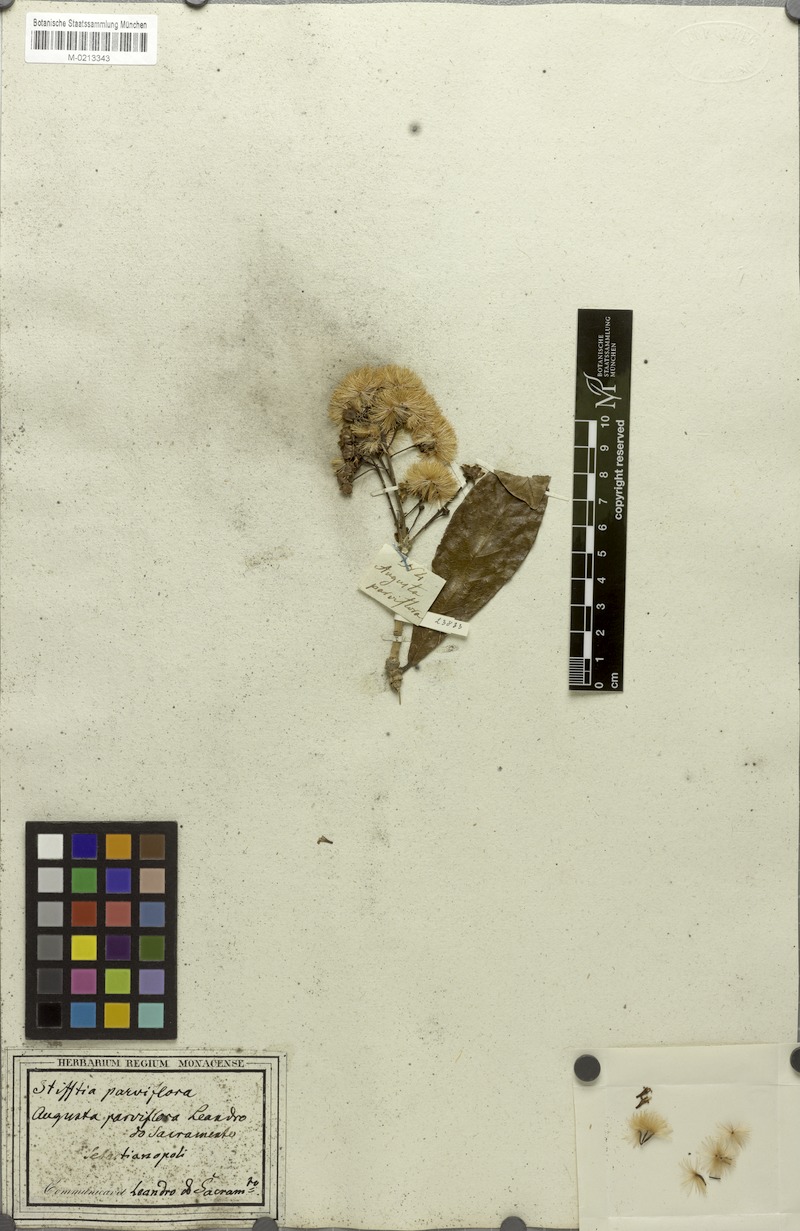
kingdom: Plantae
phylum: Tracheophyta
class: Magnoliopsida
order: Asterales
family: Asteraceae
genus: Stifftia
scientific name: Stifftia parviflora
